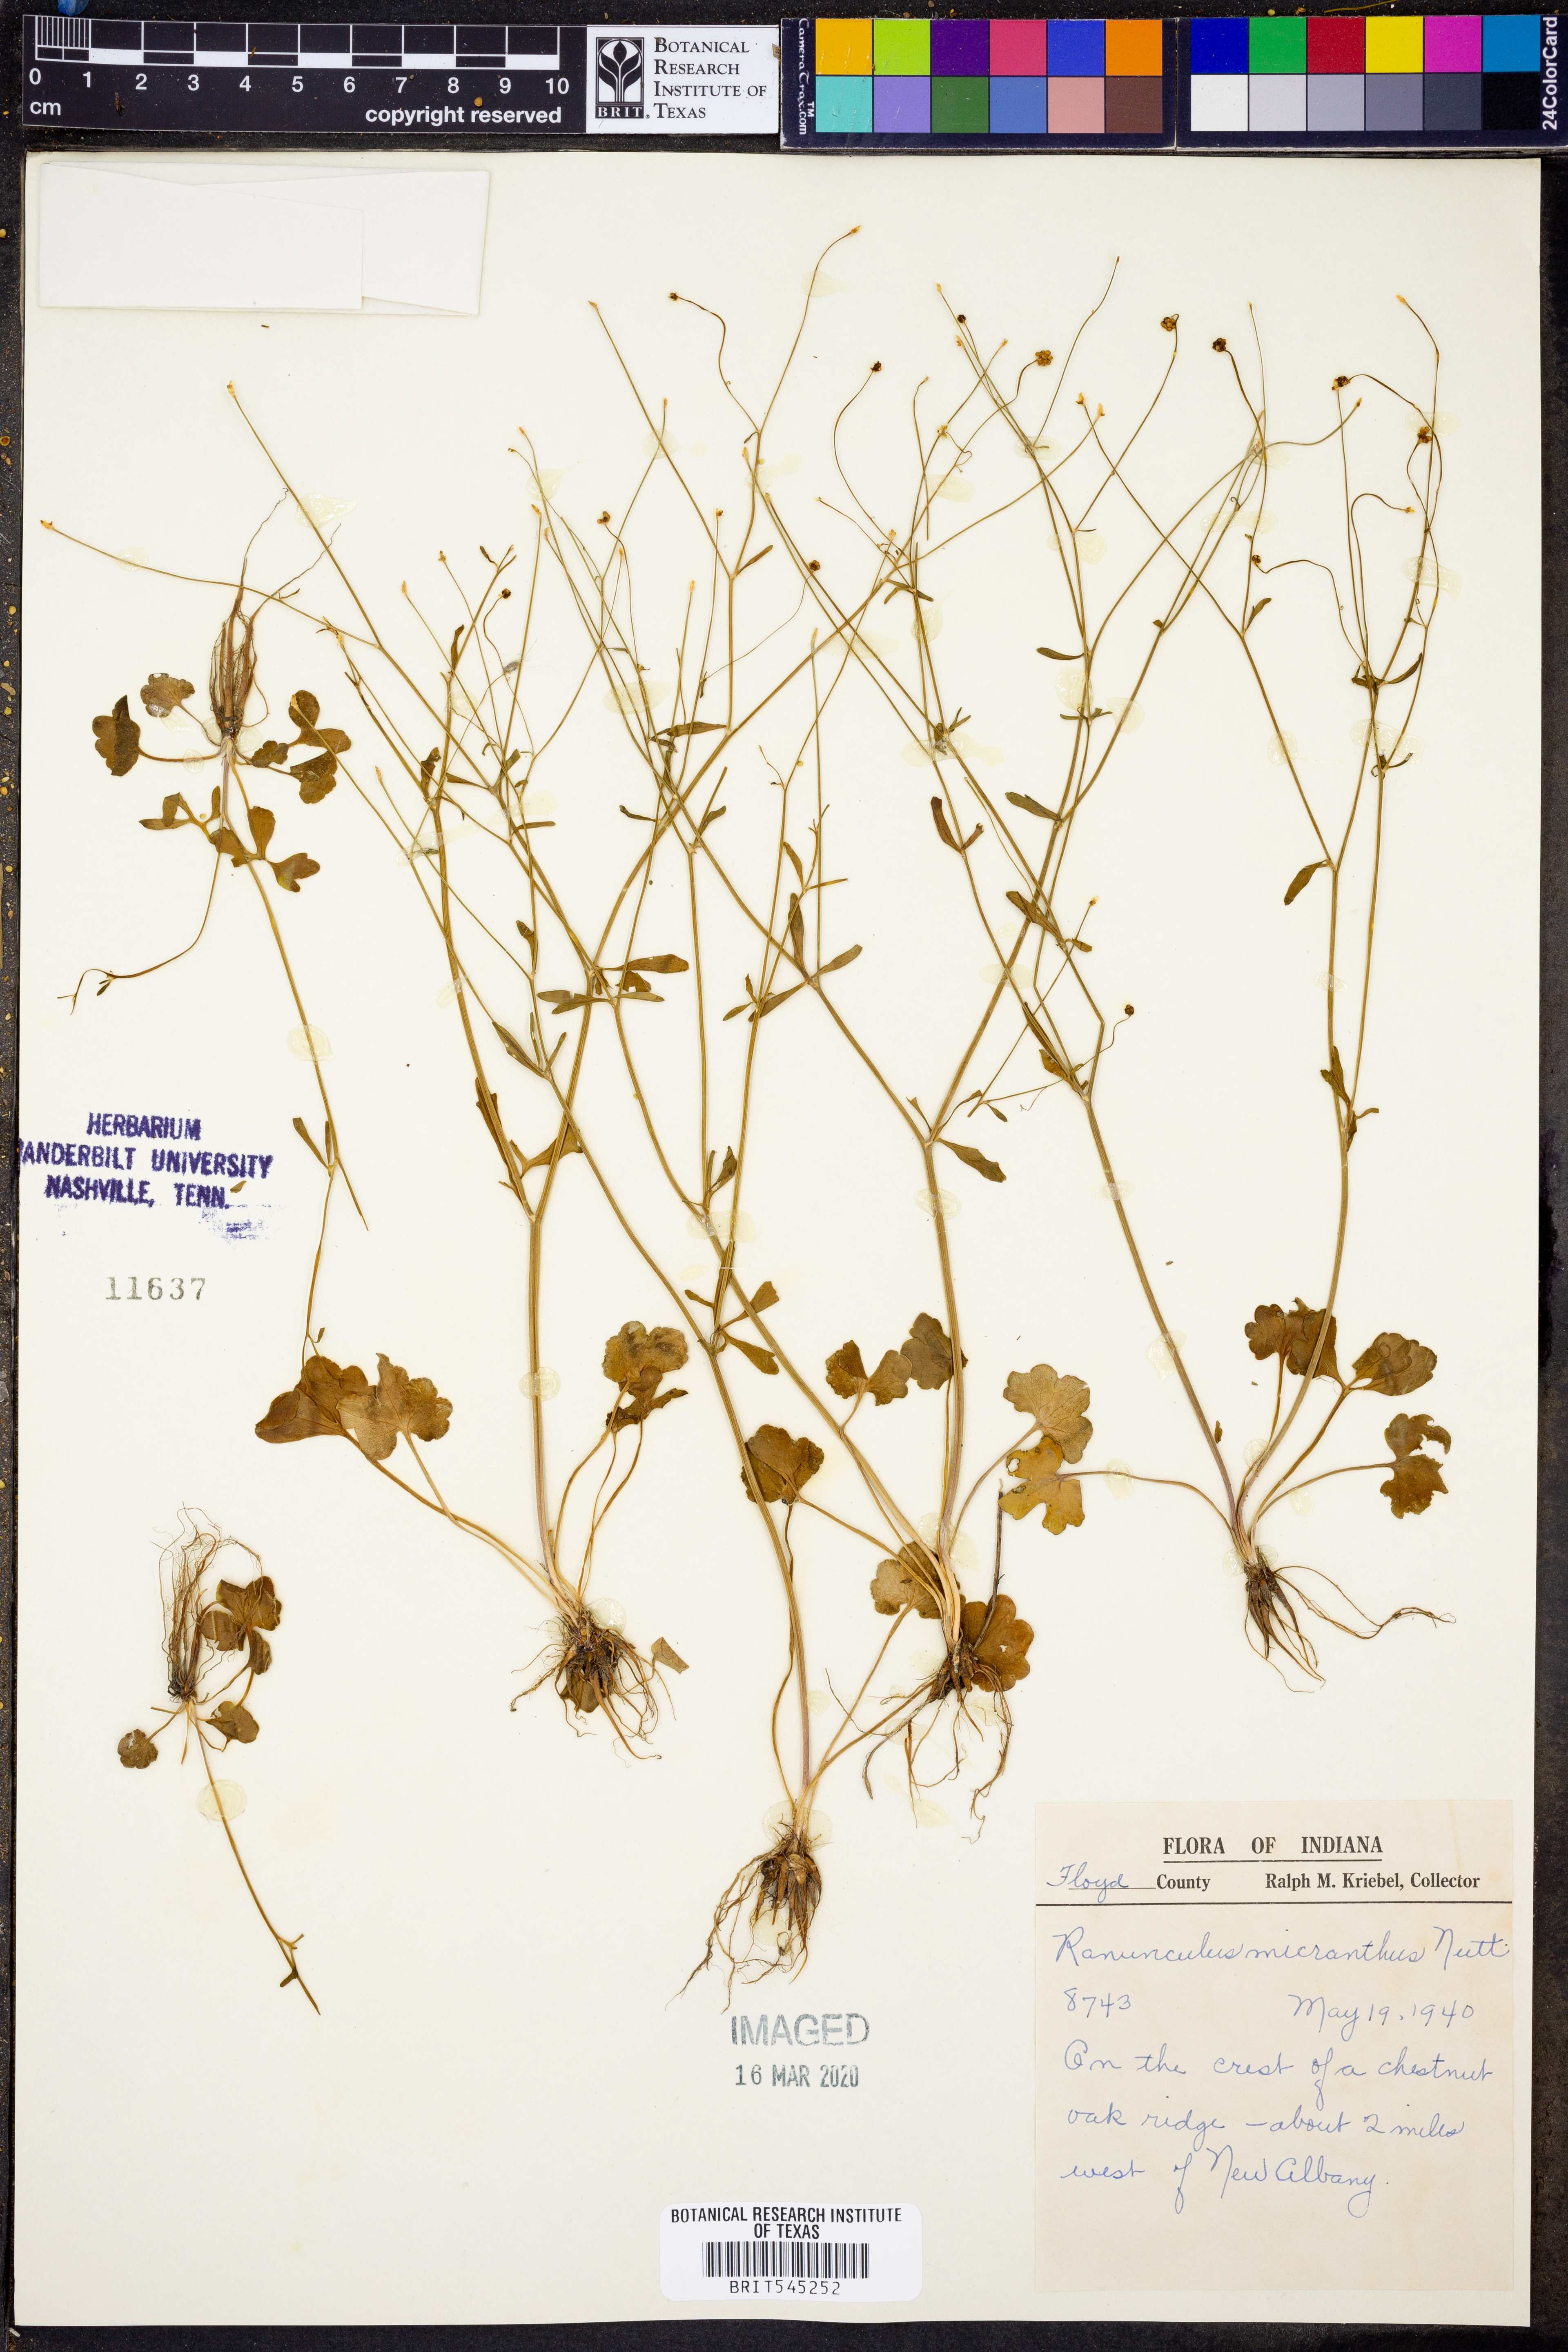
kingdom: Plantae
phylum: Tracheophyta
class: Magnoliopsida
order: Ranunculales
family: Ranunculaceae
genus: Ranunculus
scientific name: Ranunculus micranthus
